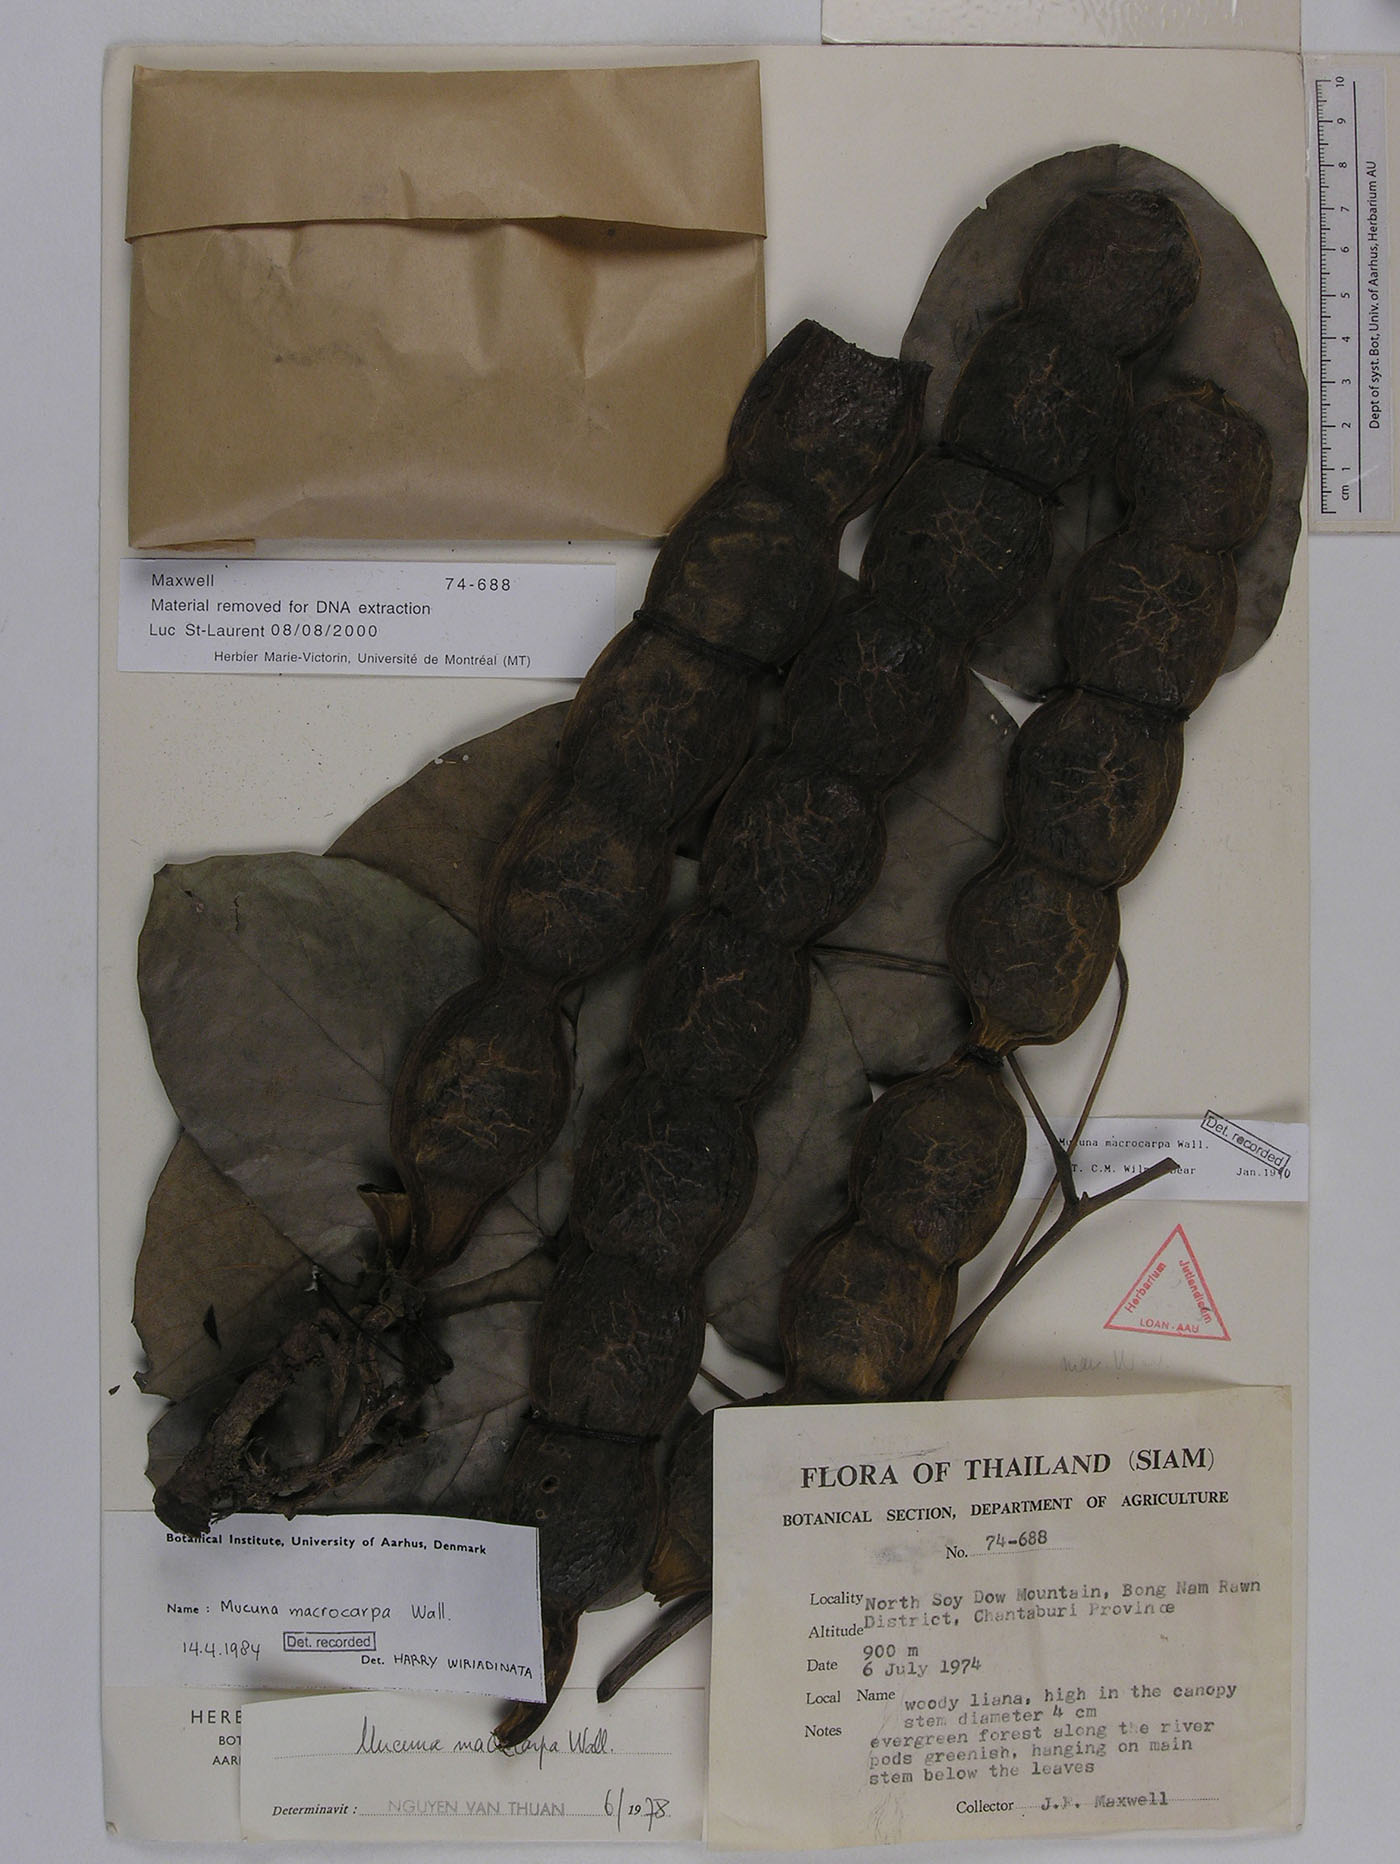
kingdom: Plantae
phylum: Tracheophyta
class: Magnoliopsida
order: Fabales
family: Fabaceae
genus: Mucuna
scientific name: Mucuna macrocarpa
